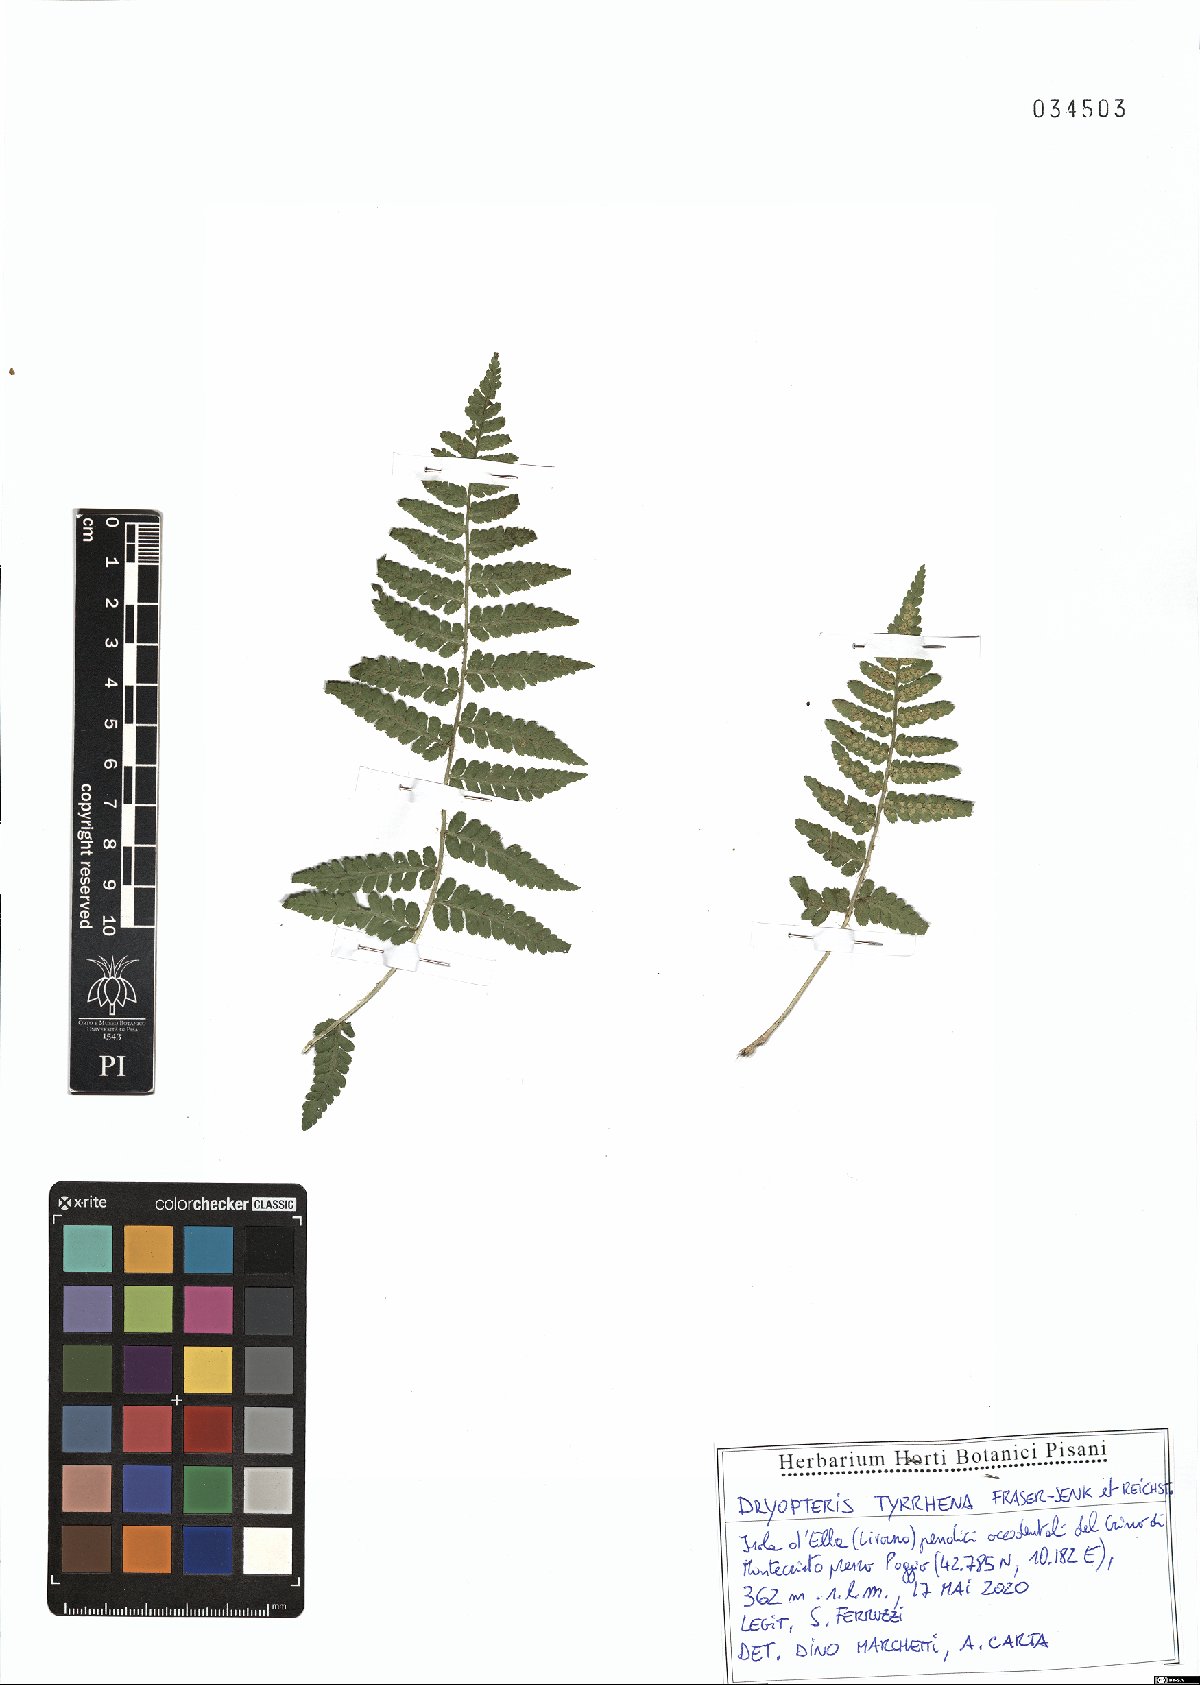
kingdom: Plantae
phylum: Tracheophyta
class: Polypodiopsida
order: Polypodiales
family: Dryopteridaceae
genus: Dryopteris
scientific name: Dryopteris tyrrhena
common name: Mediterranean buckler-fern
